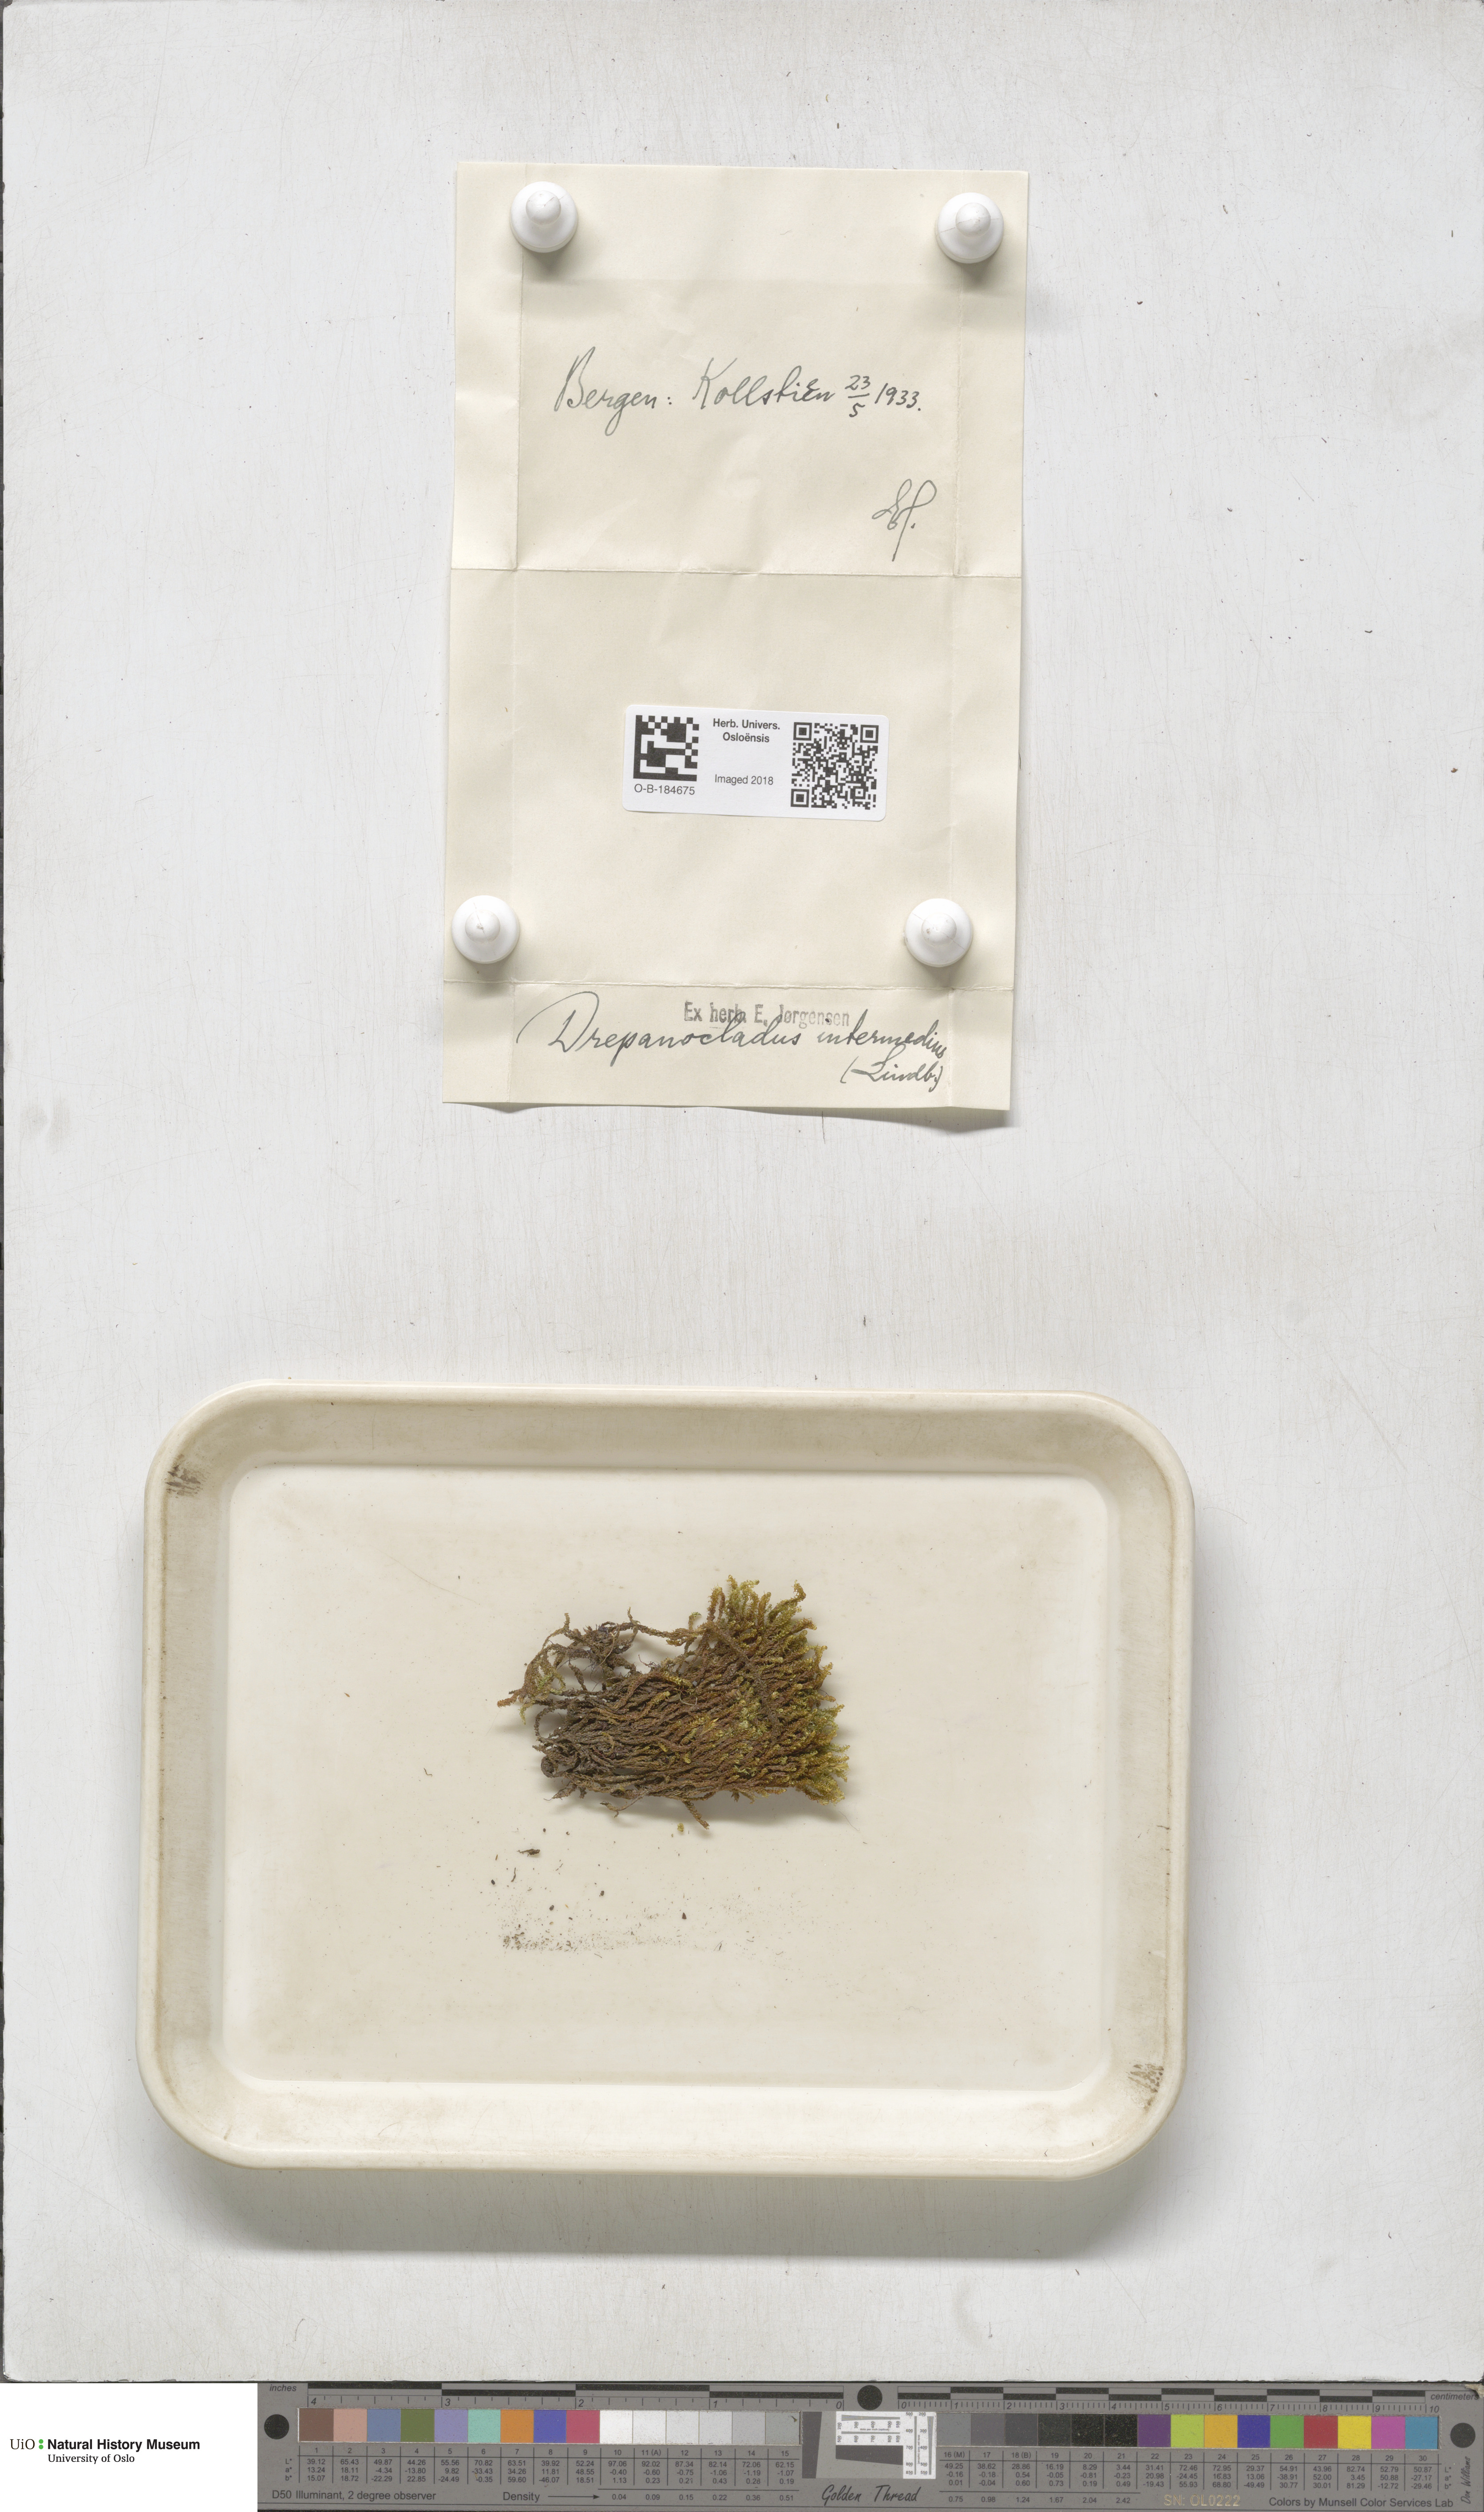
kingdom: Plantae
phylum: Bryophyta
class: Bryopsida
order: Hypnales
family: Scorpidiaceae
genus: Scorpidium
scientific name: Scorpidium cossonii
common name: Cosson's hook moss
